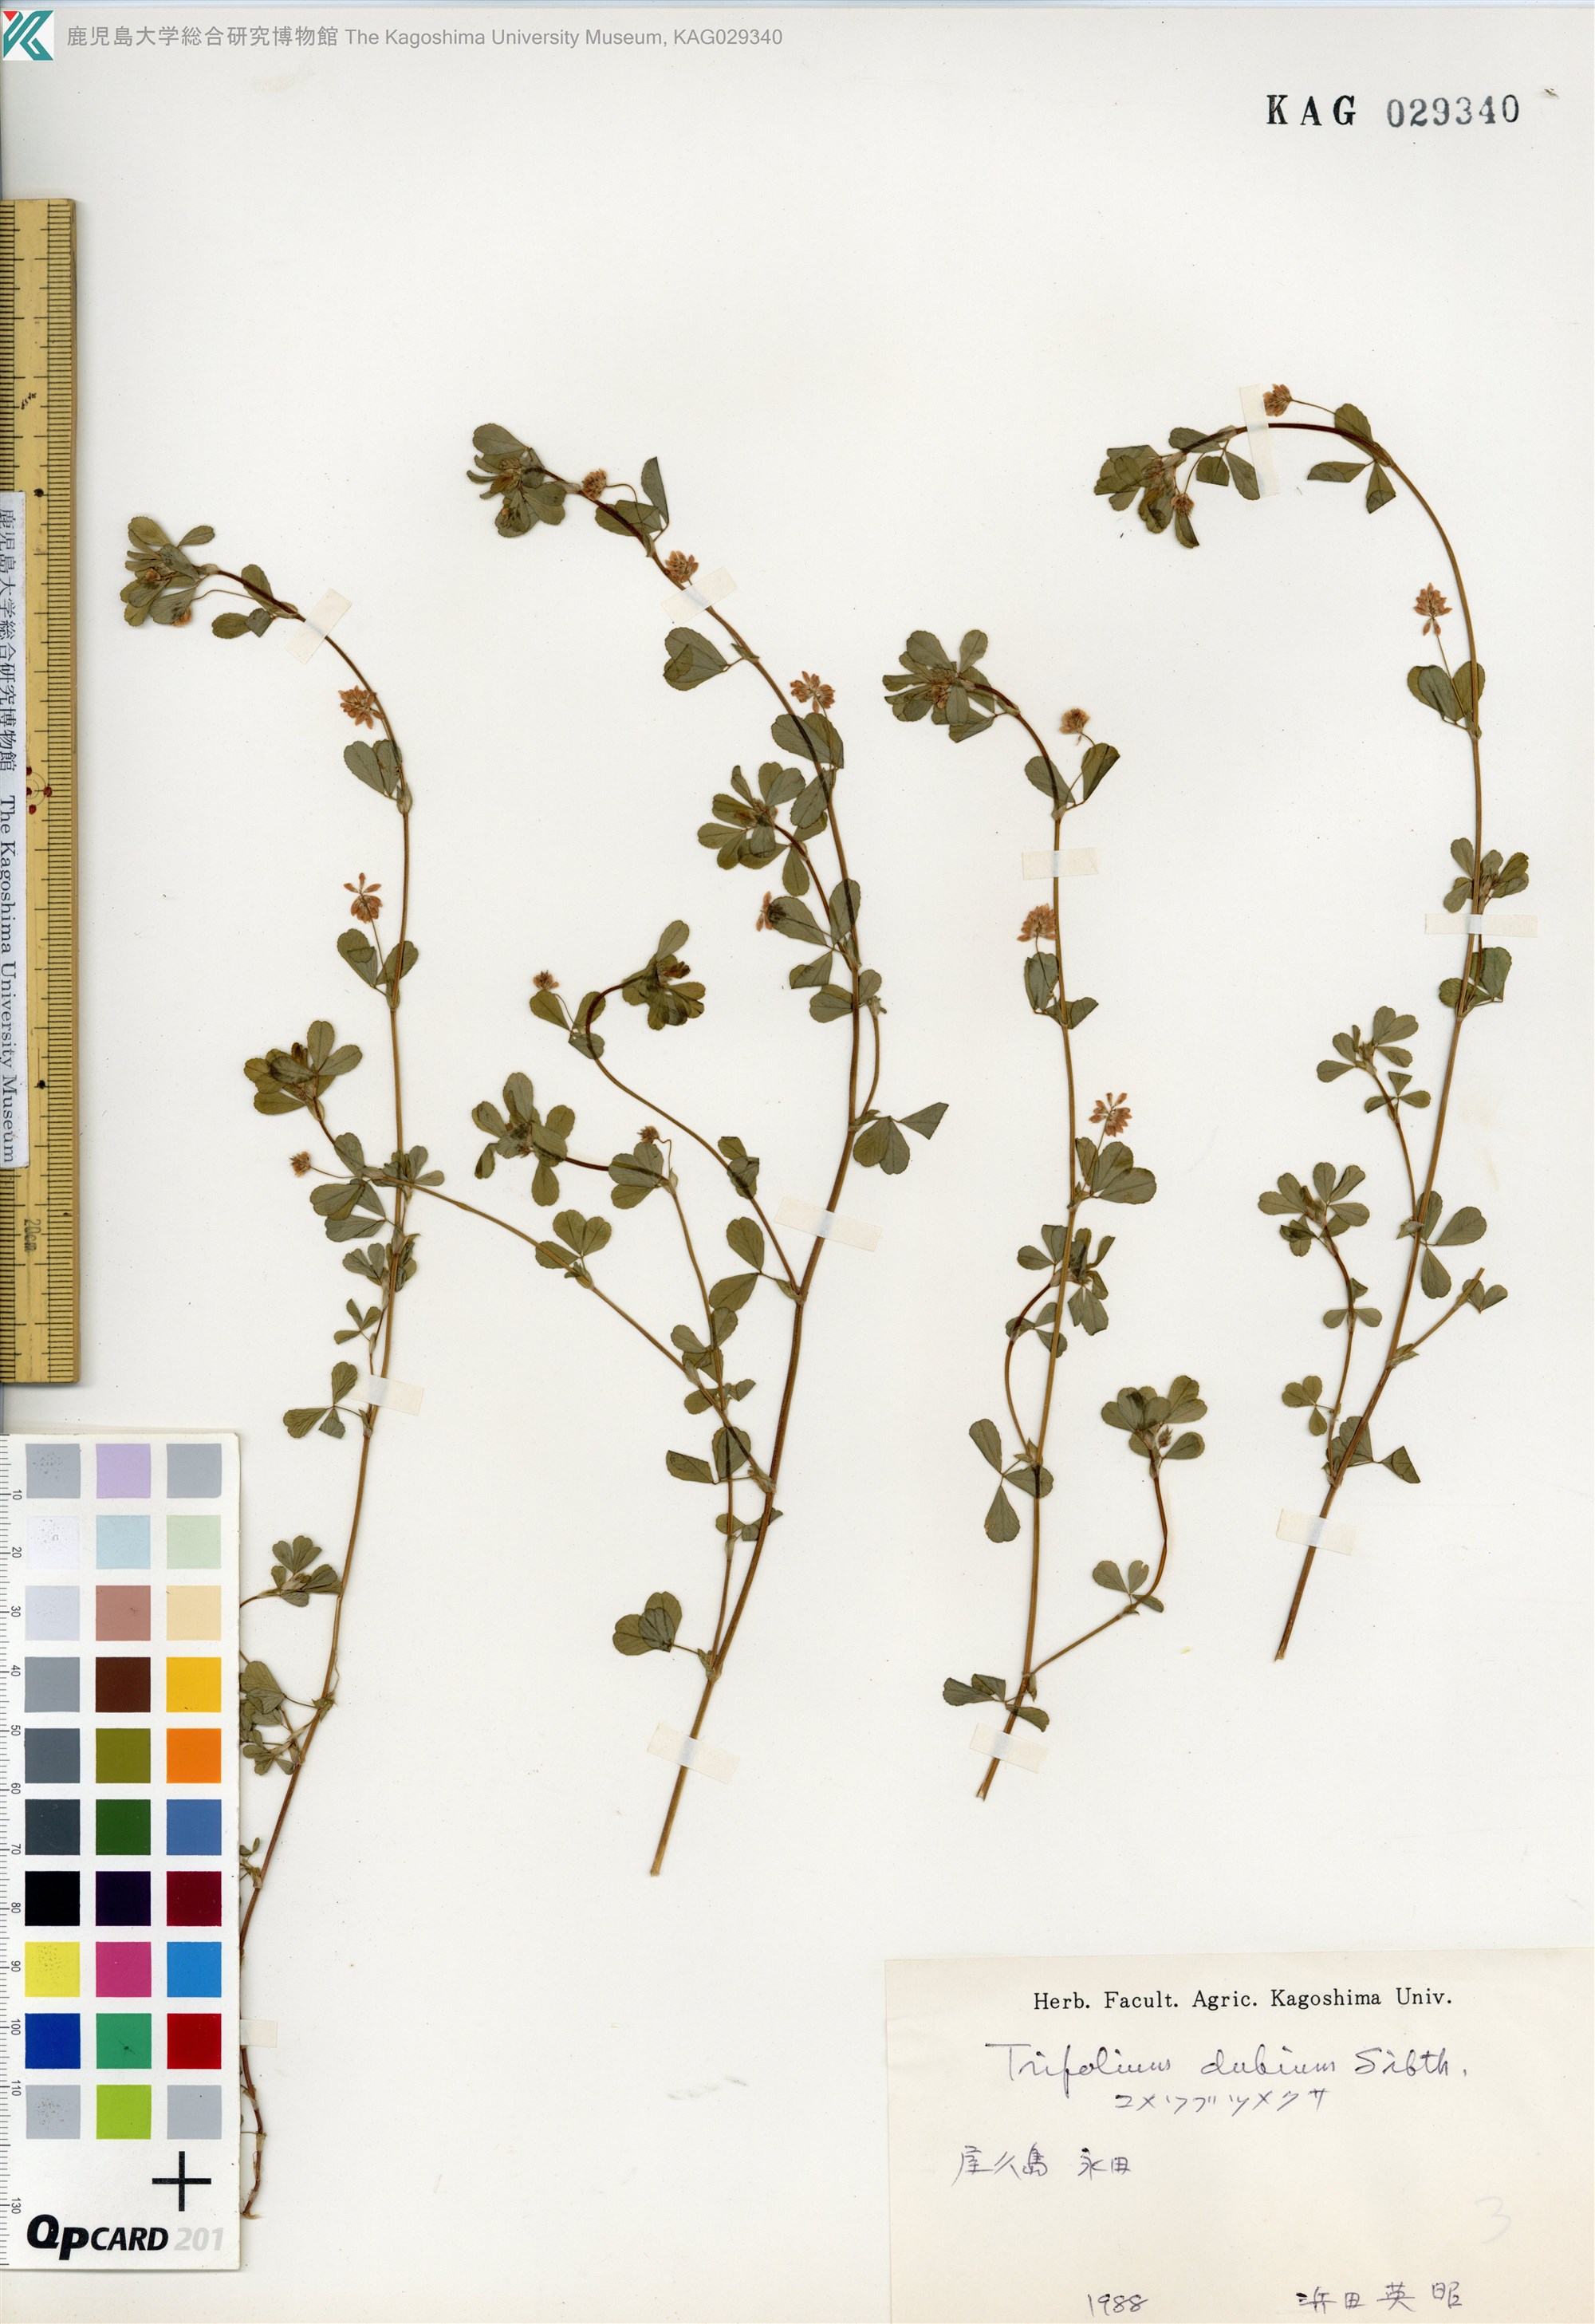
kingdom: Plantae
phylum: Tracheophyta
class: Magnoliopsida
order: Fabales
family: Fabaceae
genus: Trifolium
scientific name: Trifolium dubium
